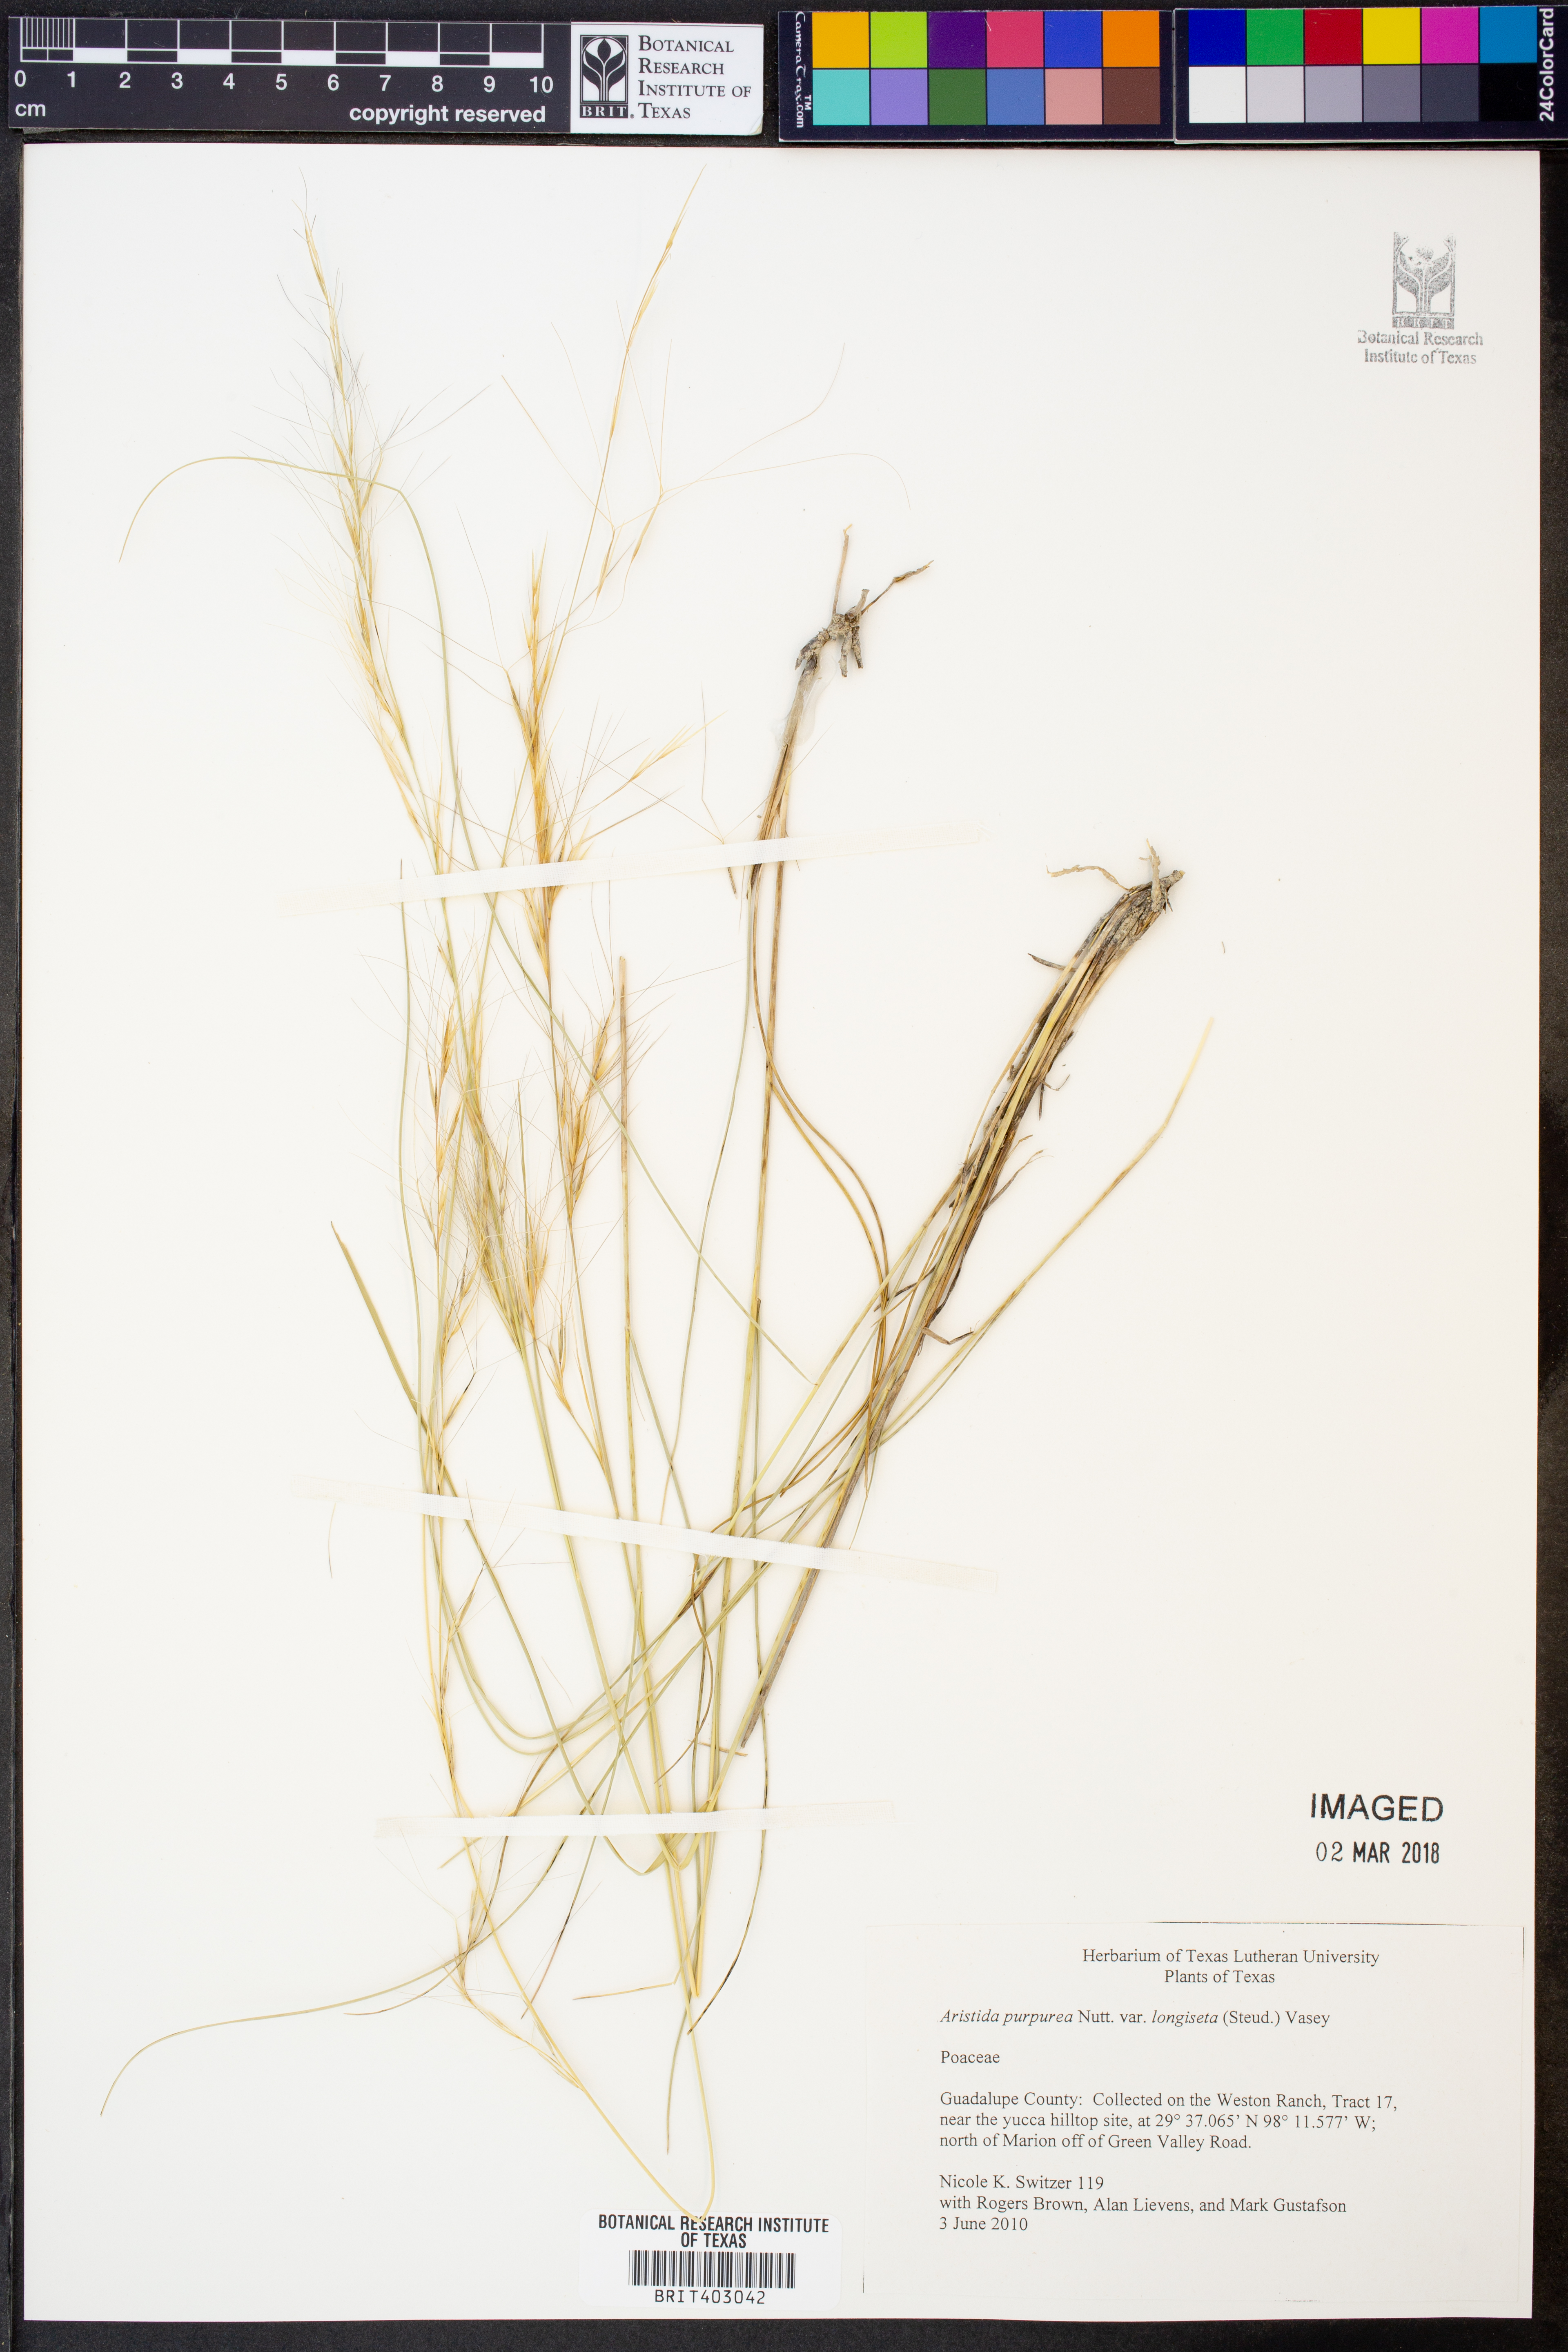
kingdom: Plantae
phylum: Tracheophyta
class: Liliopsida
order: Poales
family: Poaceae
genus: Aristida
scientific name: Aristida longiseta
